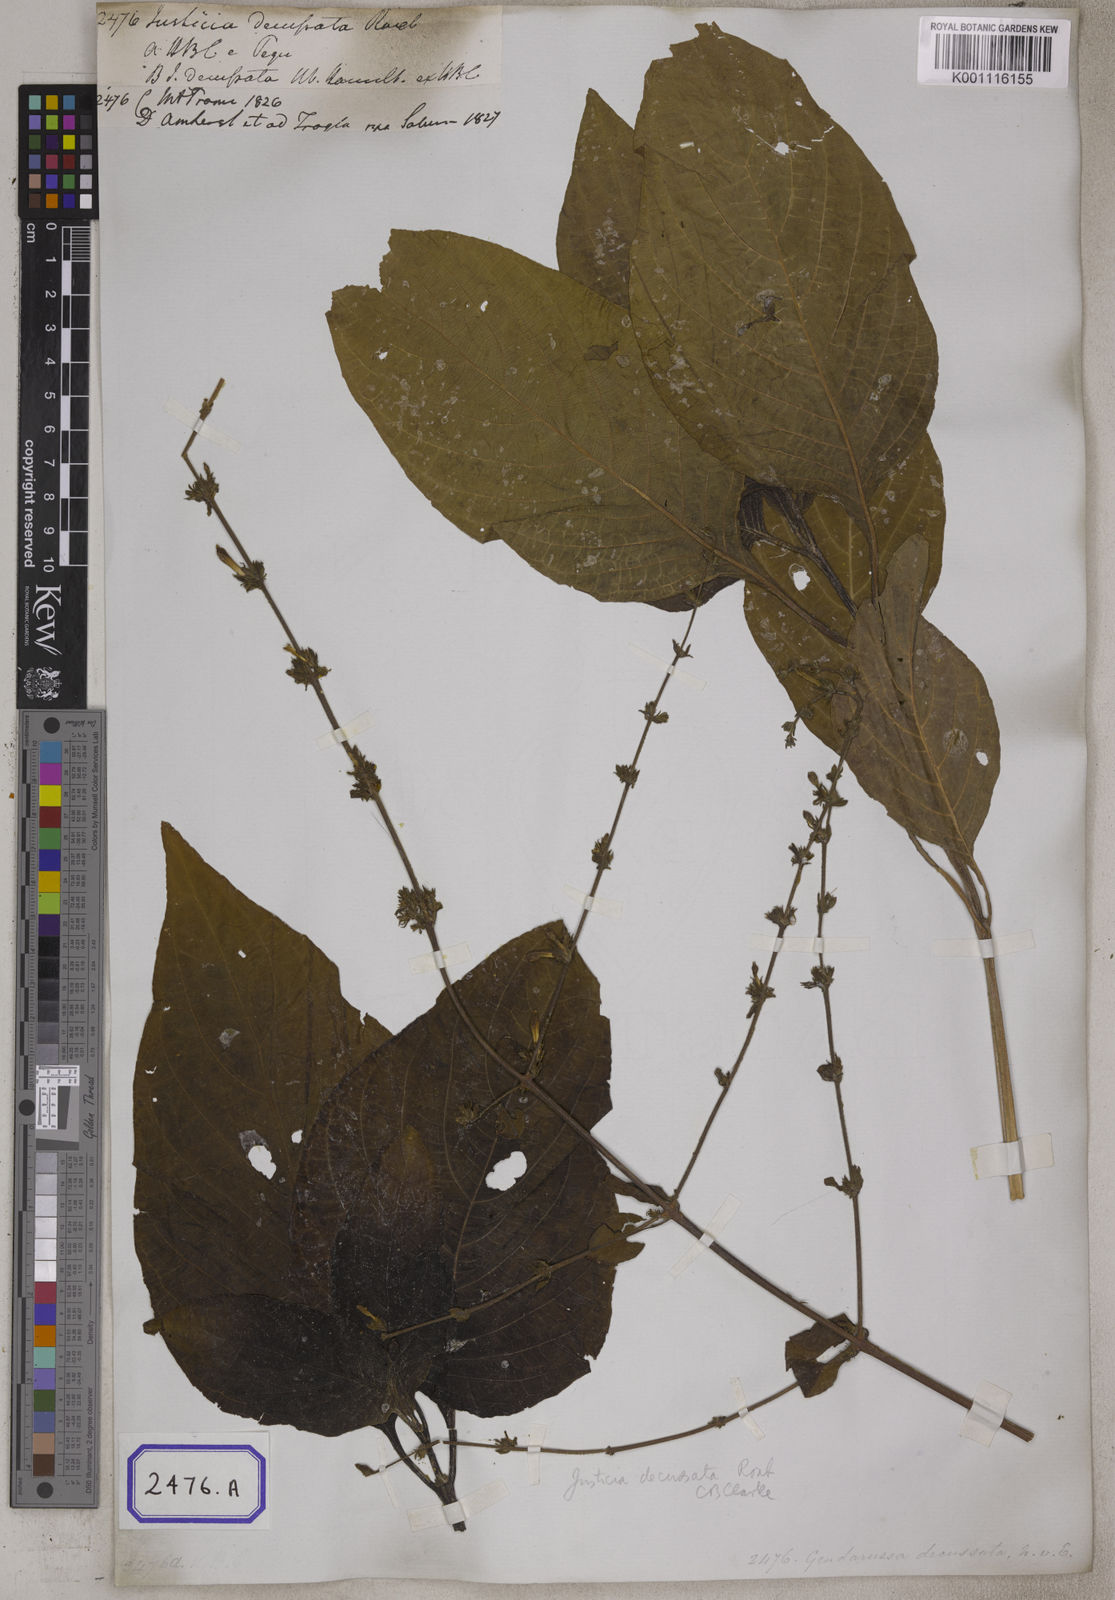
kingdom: Plantae
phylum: Tracheophyta
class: Magnoliopsida
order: Lamiales
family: Acanthaceae
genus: Justicia
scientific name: Justicia decussata
